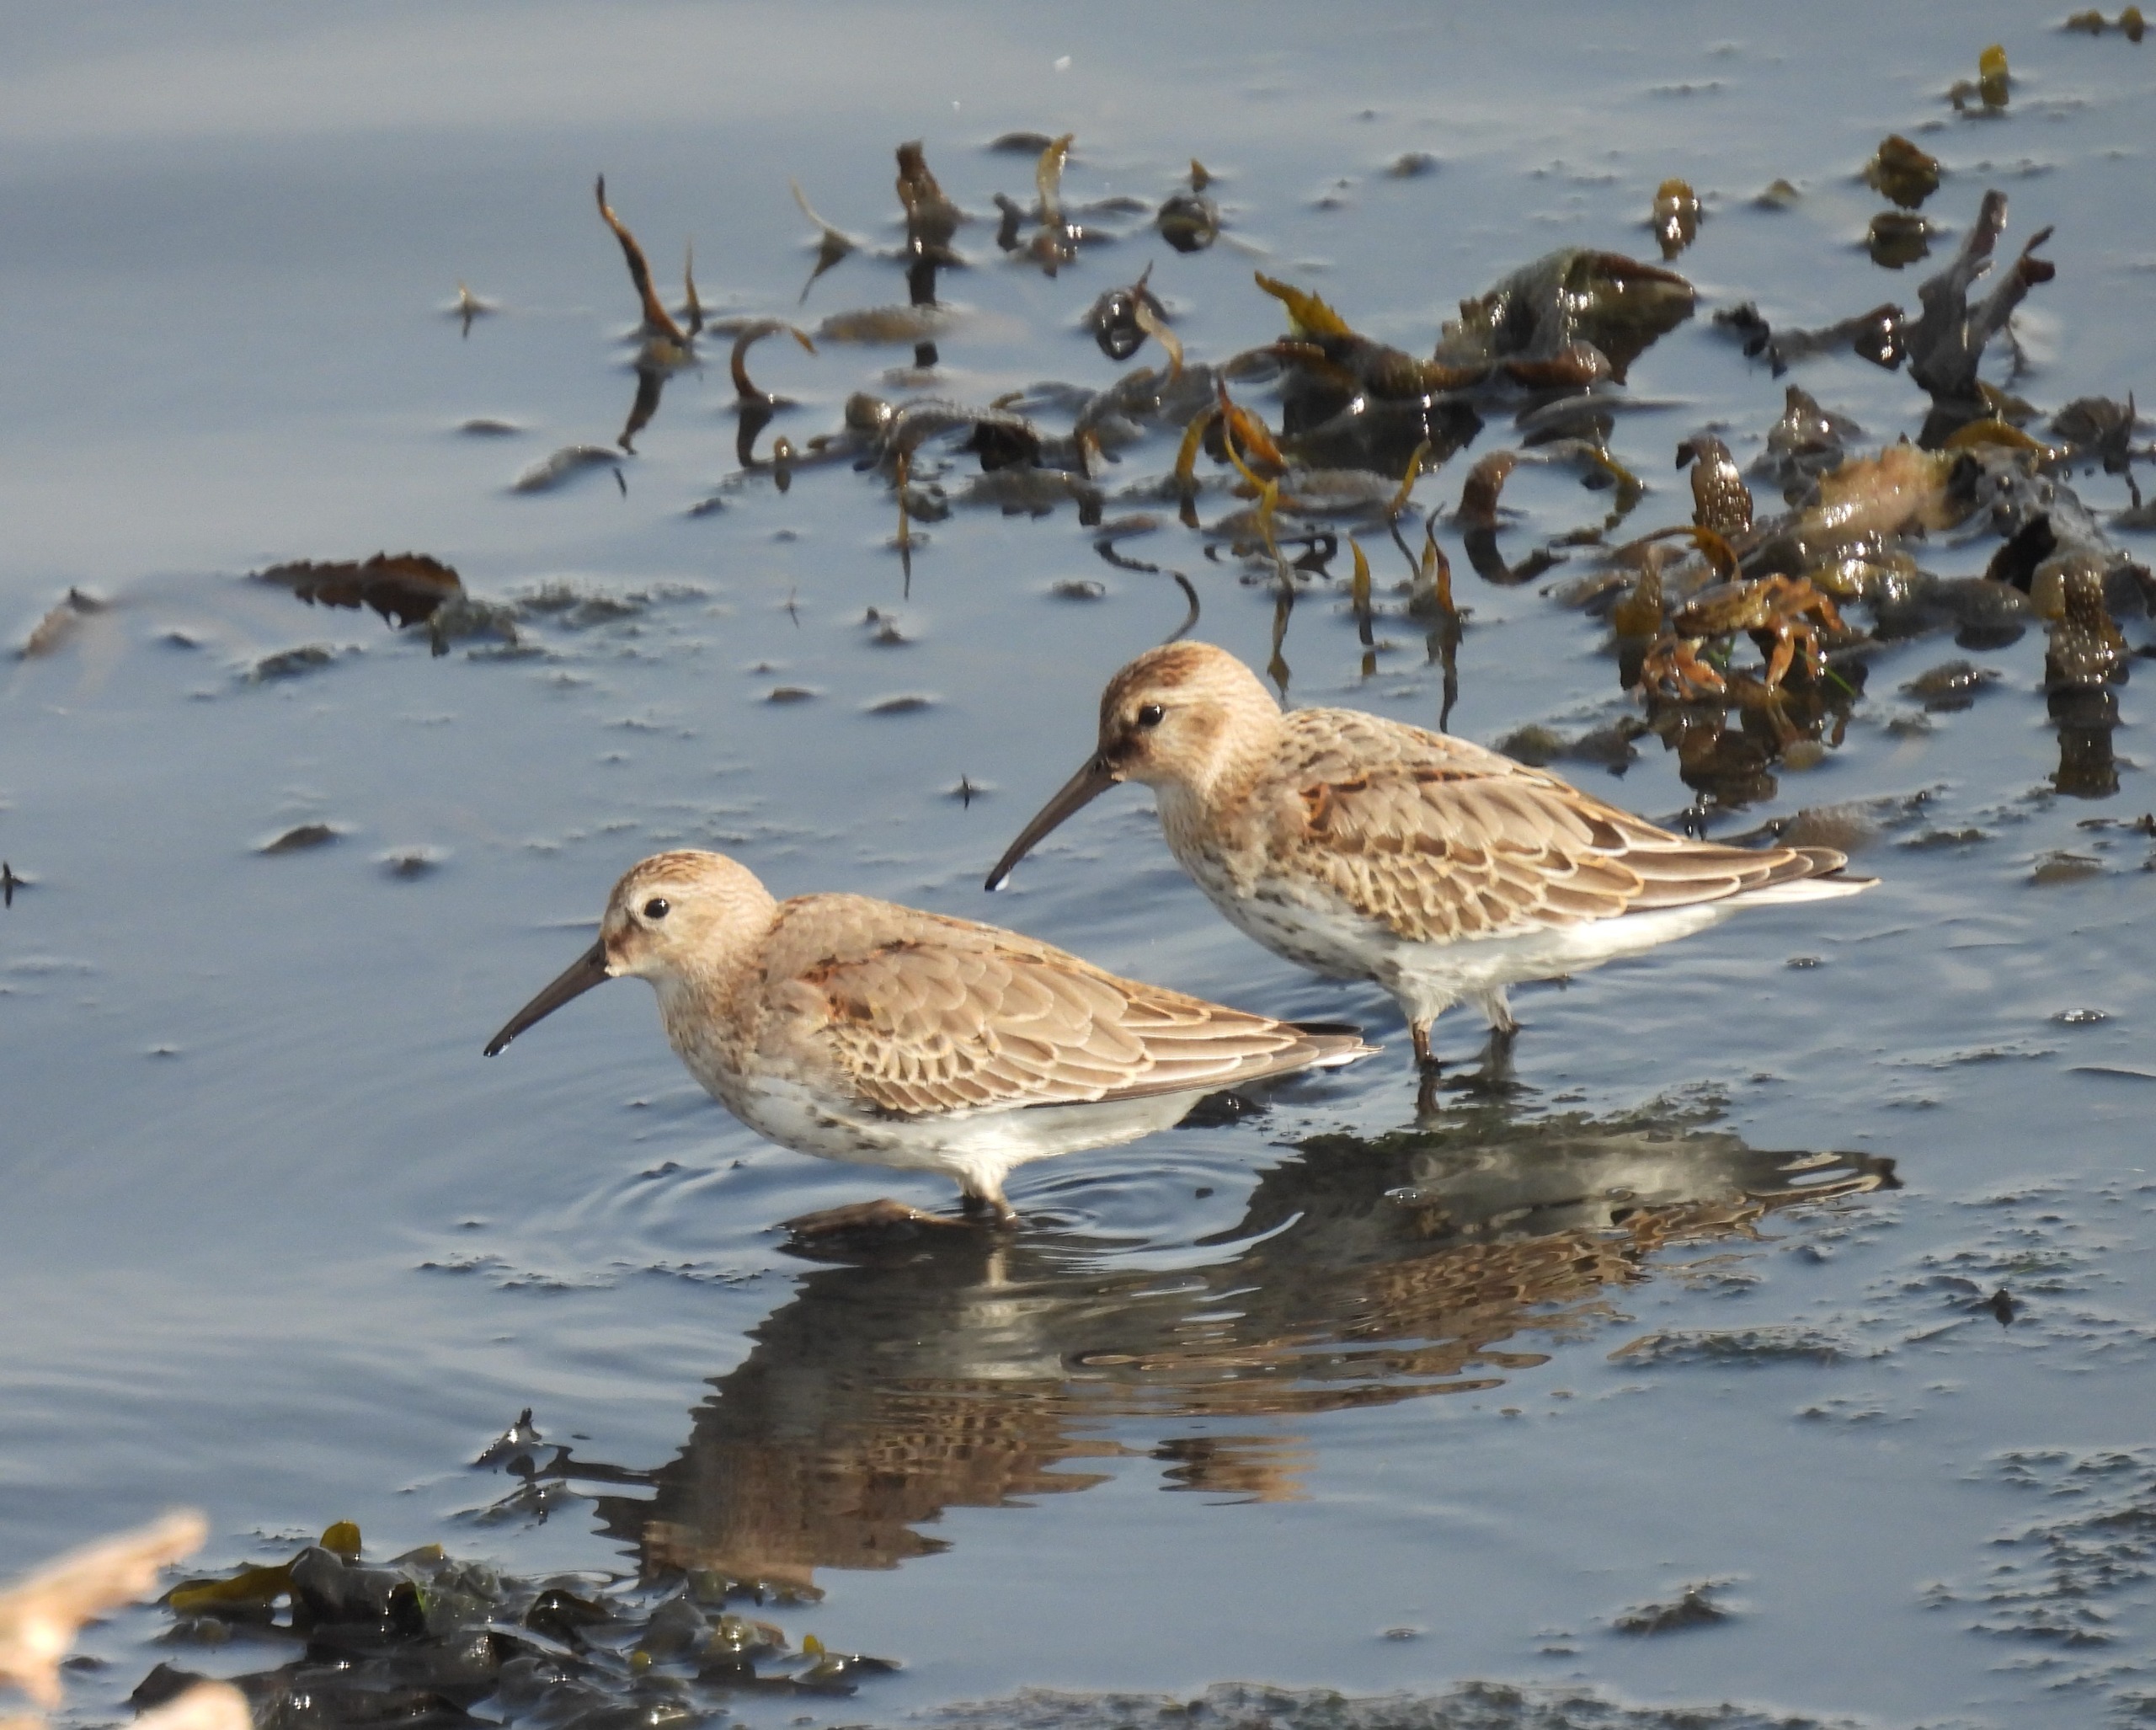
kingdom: Animalia
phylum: Chordata
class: Aves
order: Charadriiformes
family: Scolopacidae
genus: Calidris
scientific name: Calidris alpina
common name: Almindelig ryle
